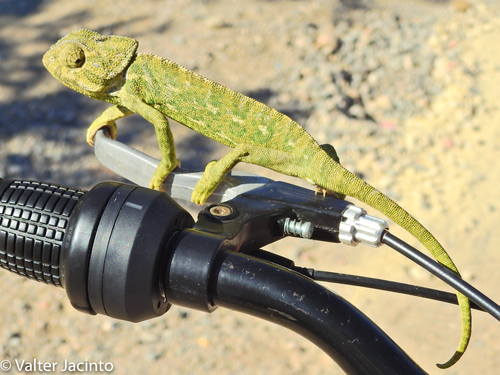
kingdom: Animalia
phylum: Chordata
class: Squamata
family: Chamaeleonidae
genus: Chamaeleo
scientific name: Chamaeleo chamaeleon
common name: Mediterranean chameleon
